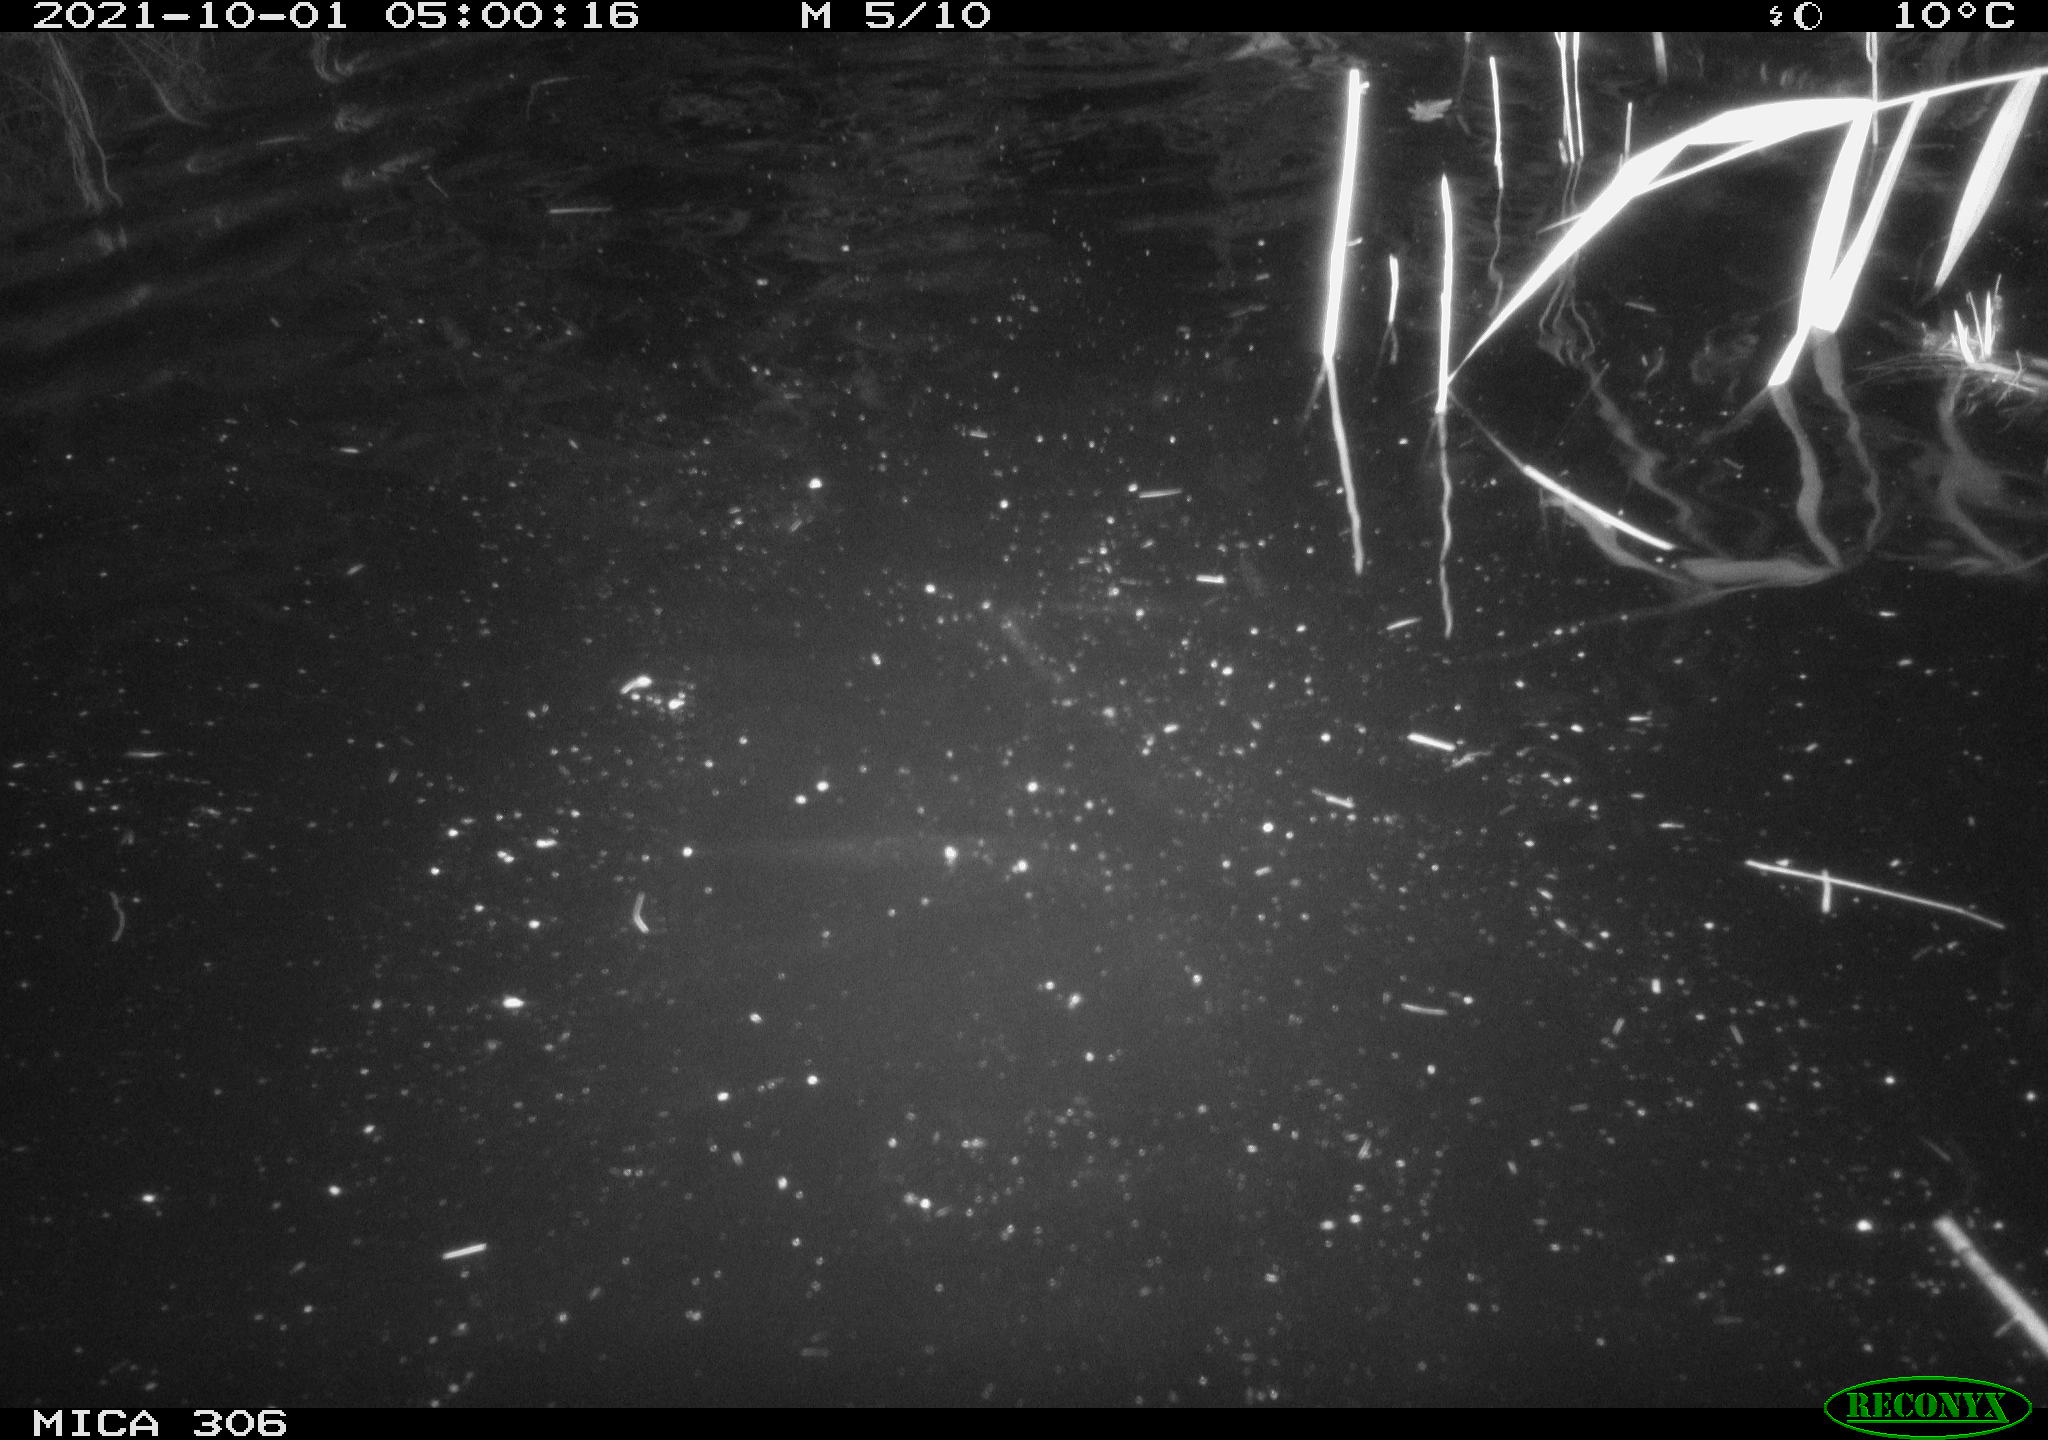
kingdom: Animalia
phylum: Chordata
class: Mammalia
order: Rodentia
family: Cricetidae
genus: Ondatra
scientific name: Ondatra zibethicus
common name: Muskrat
